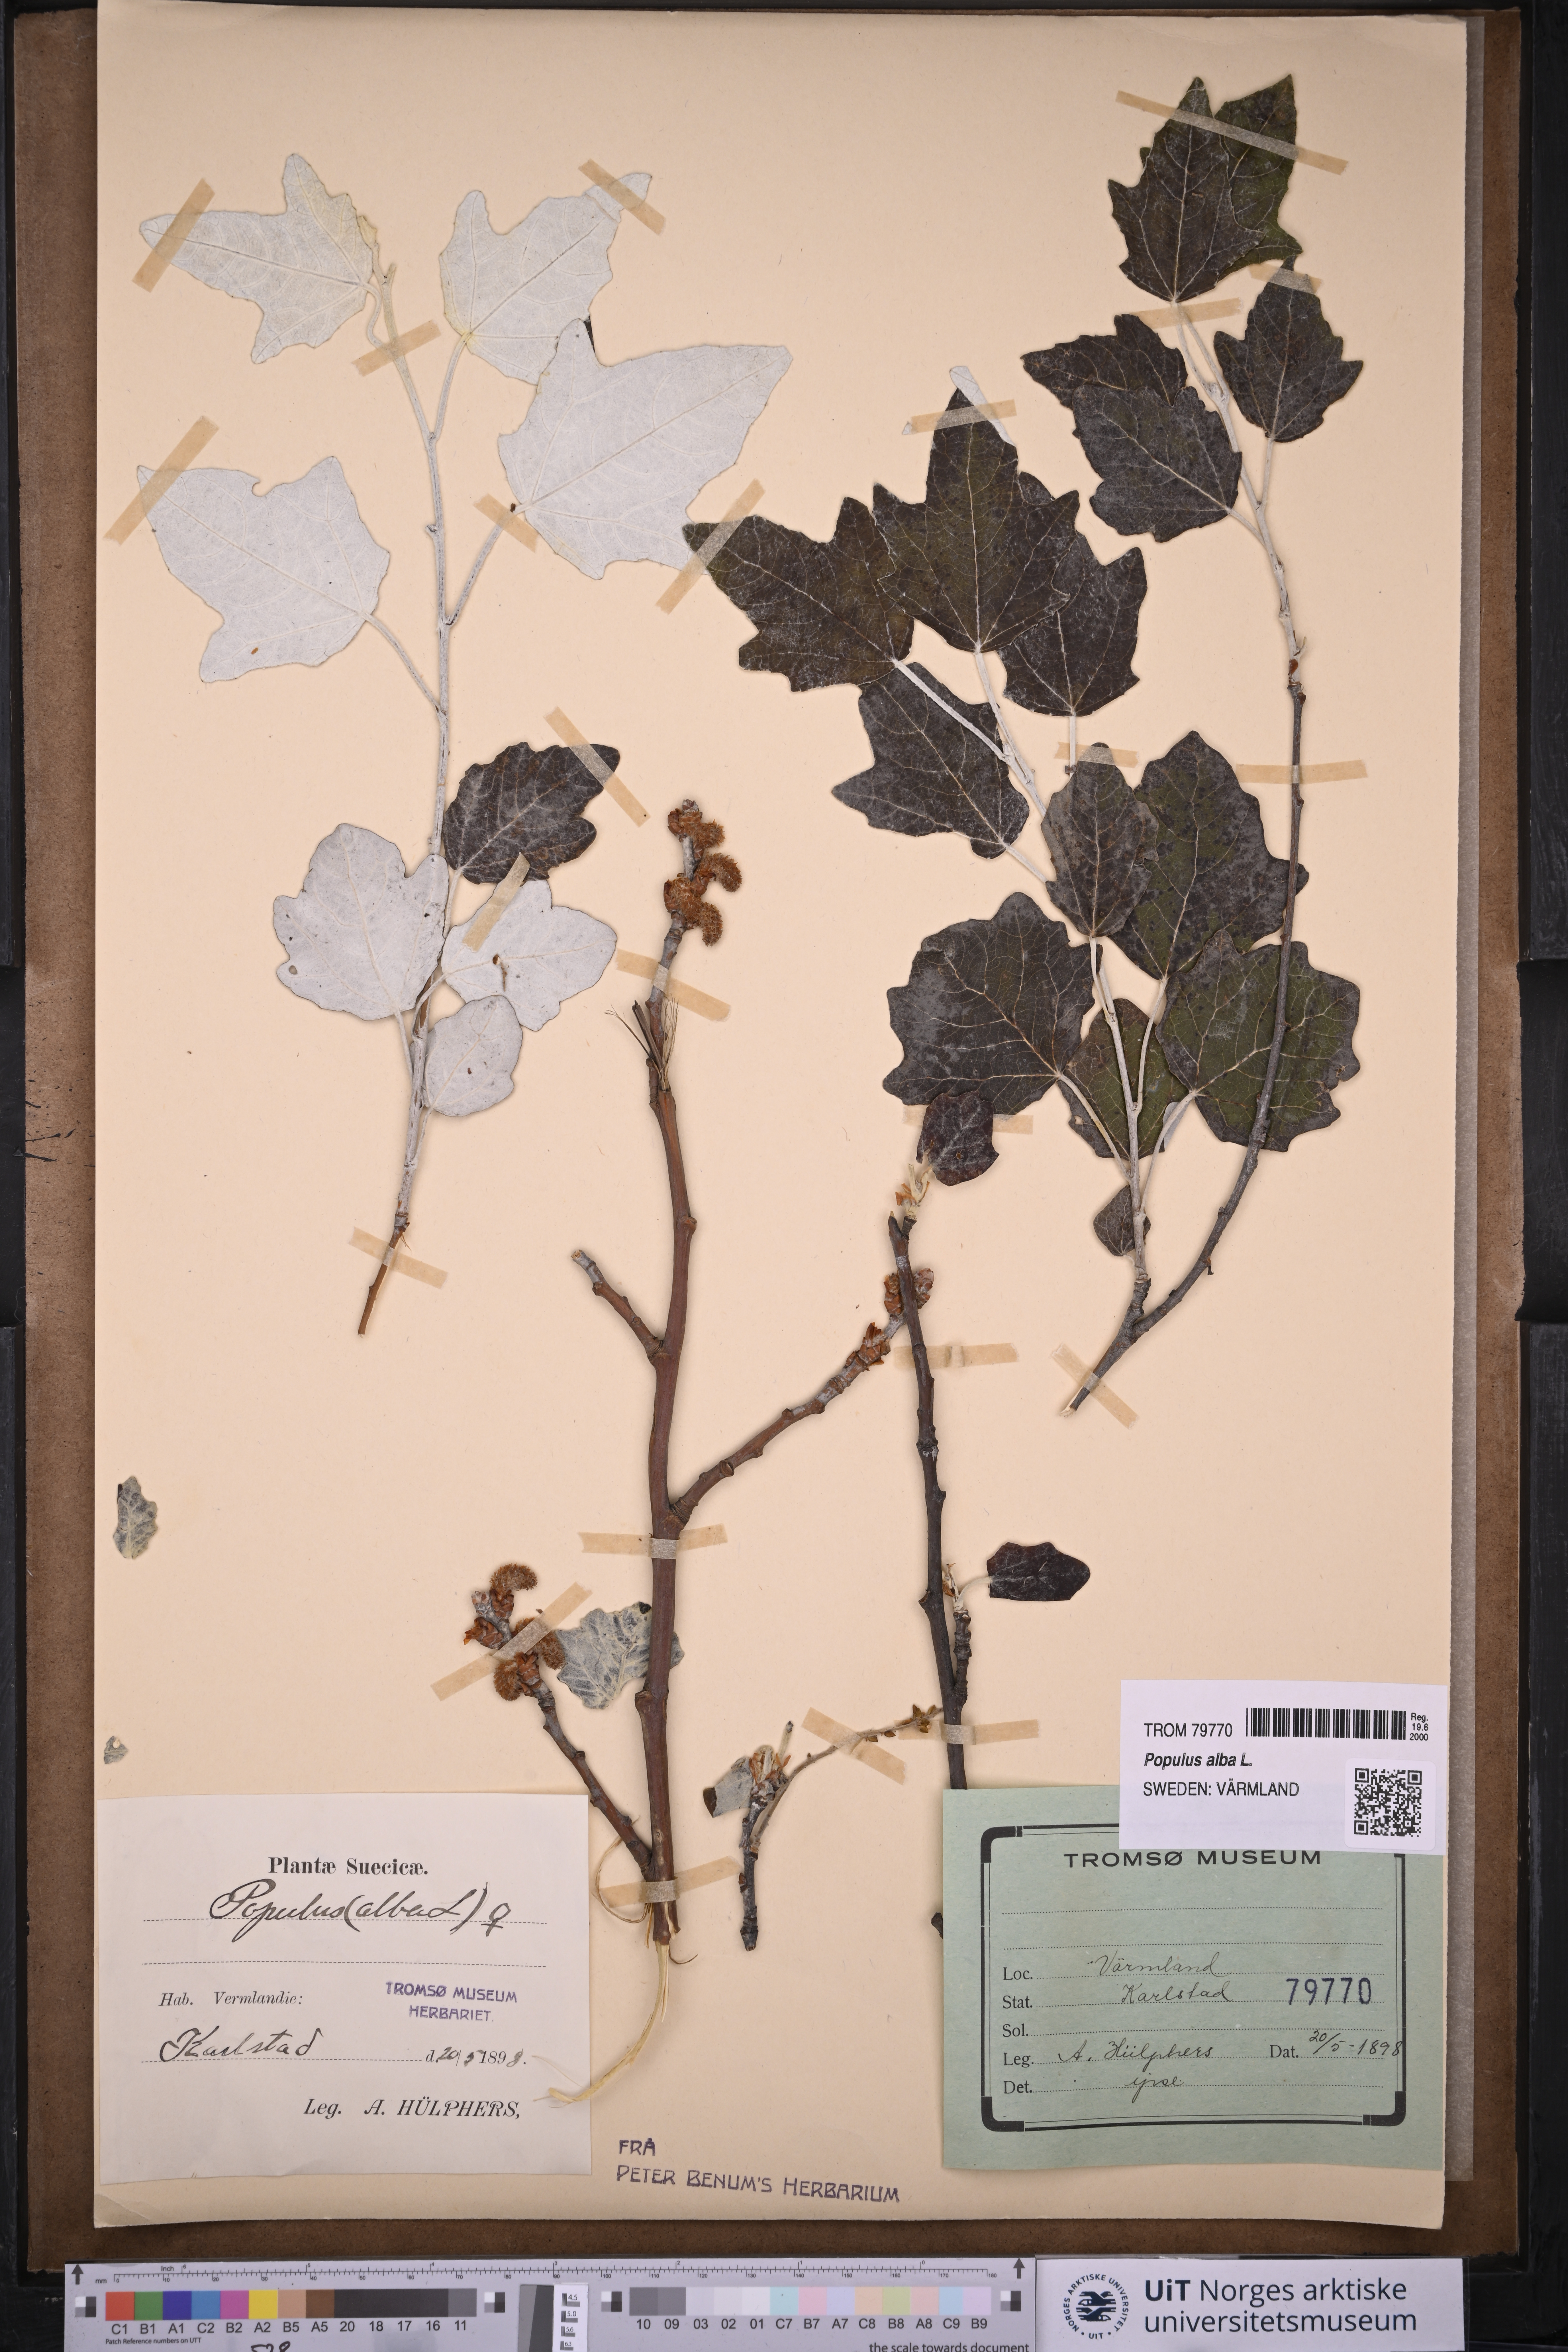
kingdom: Plantae
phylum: Tracheophyta
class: Magnoliopsida
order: Malpighiales
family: Salicaceae
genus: Populus
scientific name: Populus alba
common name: White poplar
